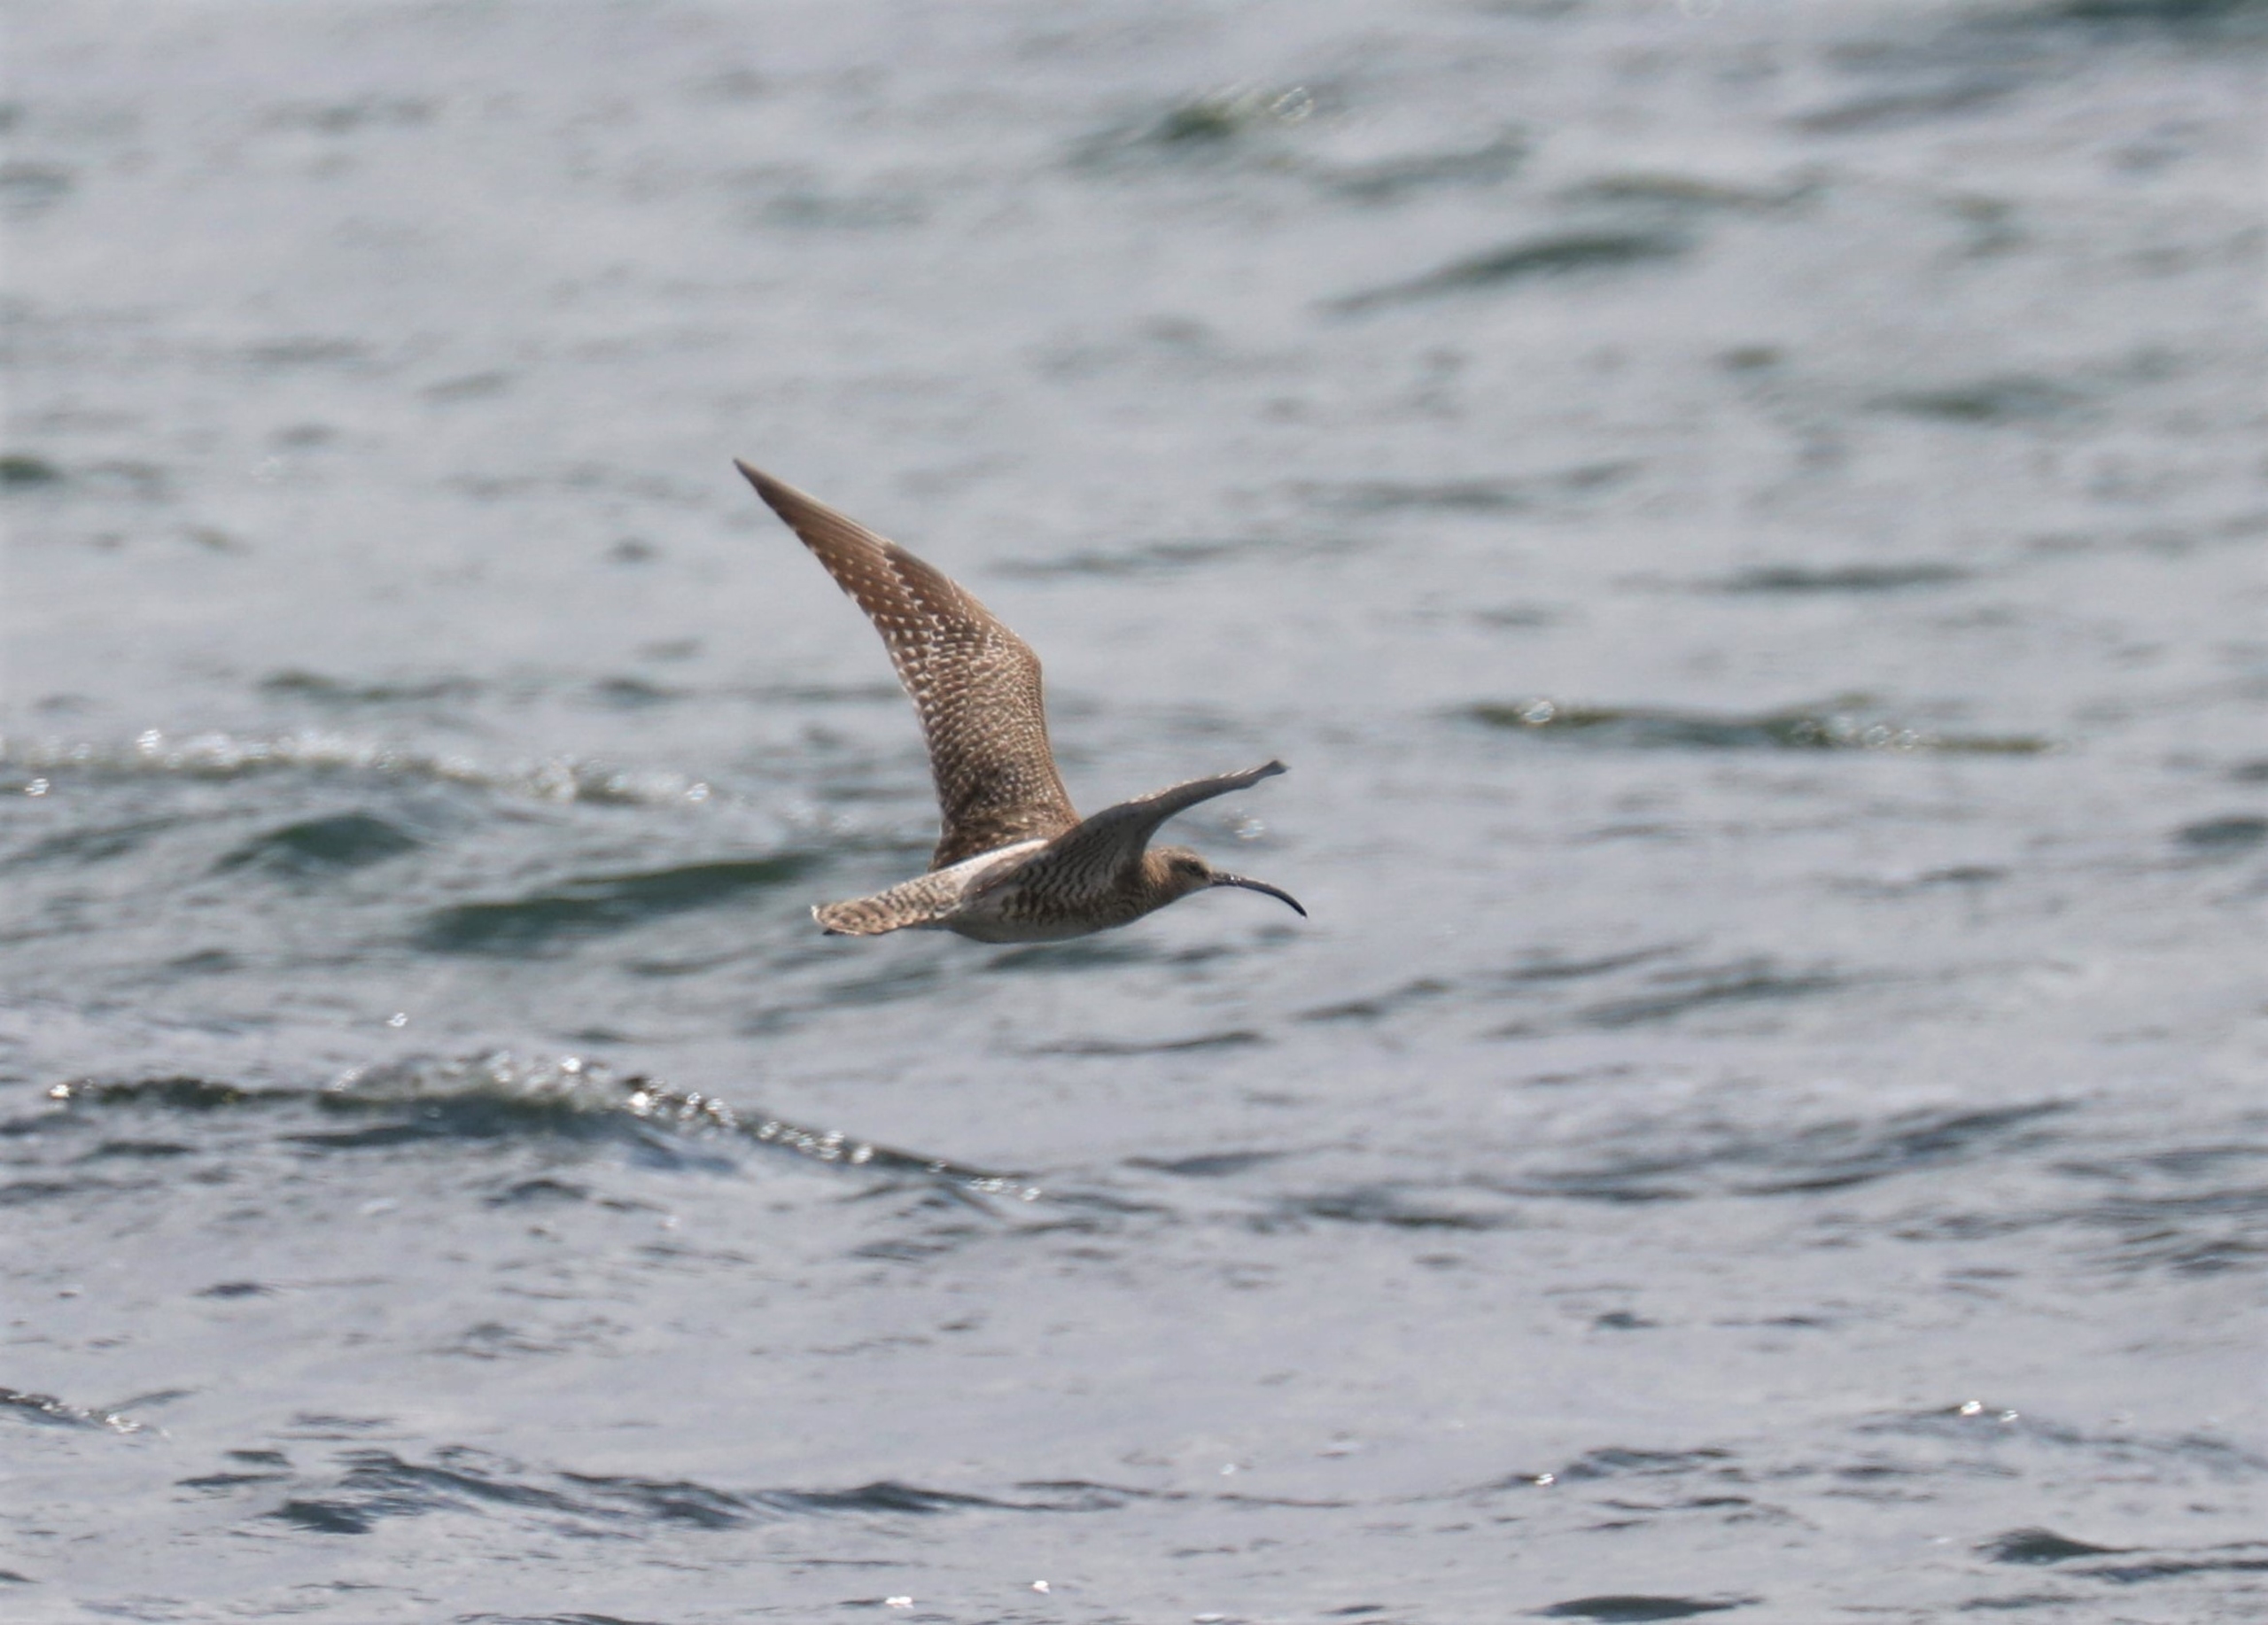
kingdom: Animalia
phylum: Chordata
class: Aves
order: Charadriiformes
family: Scolopacidae
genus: Numenius
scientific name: Numenius arquata
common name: Storspove
